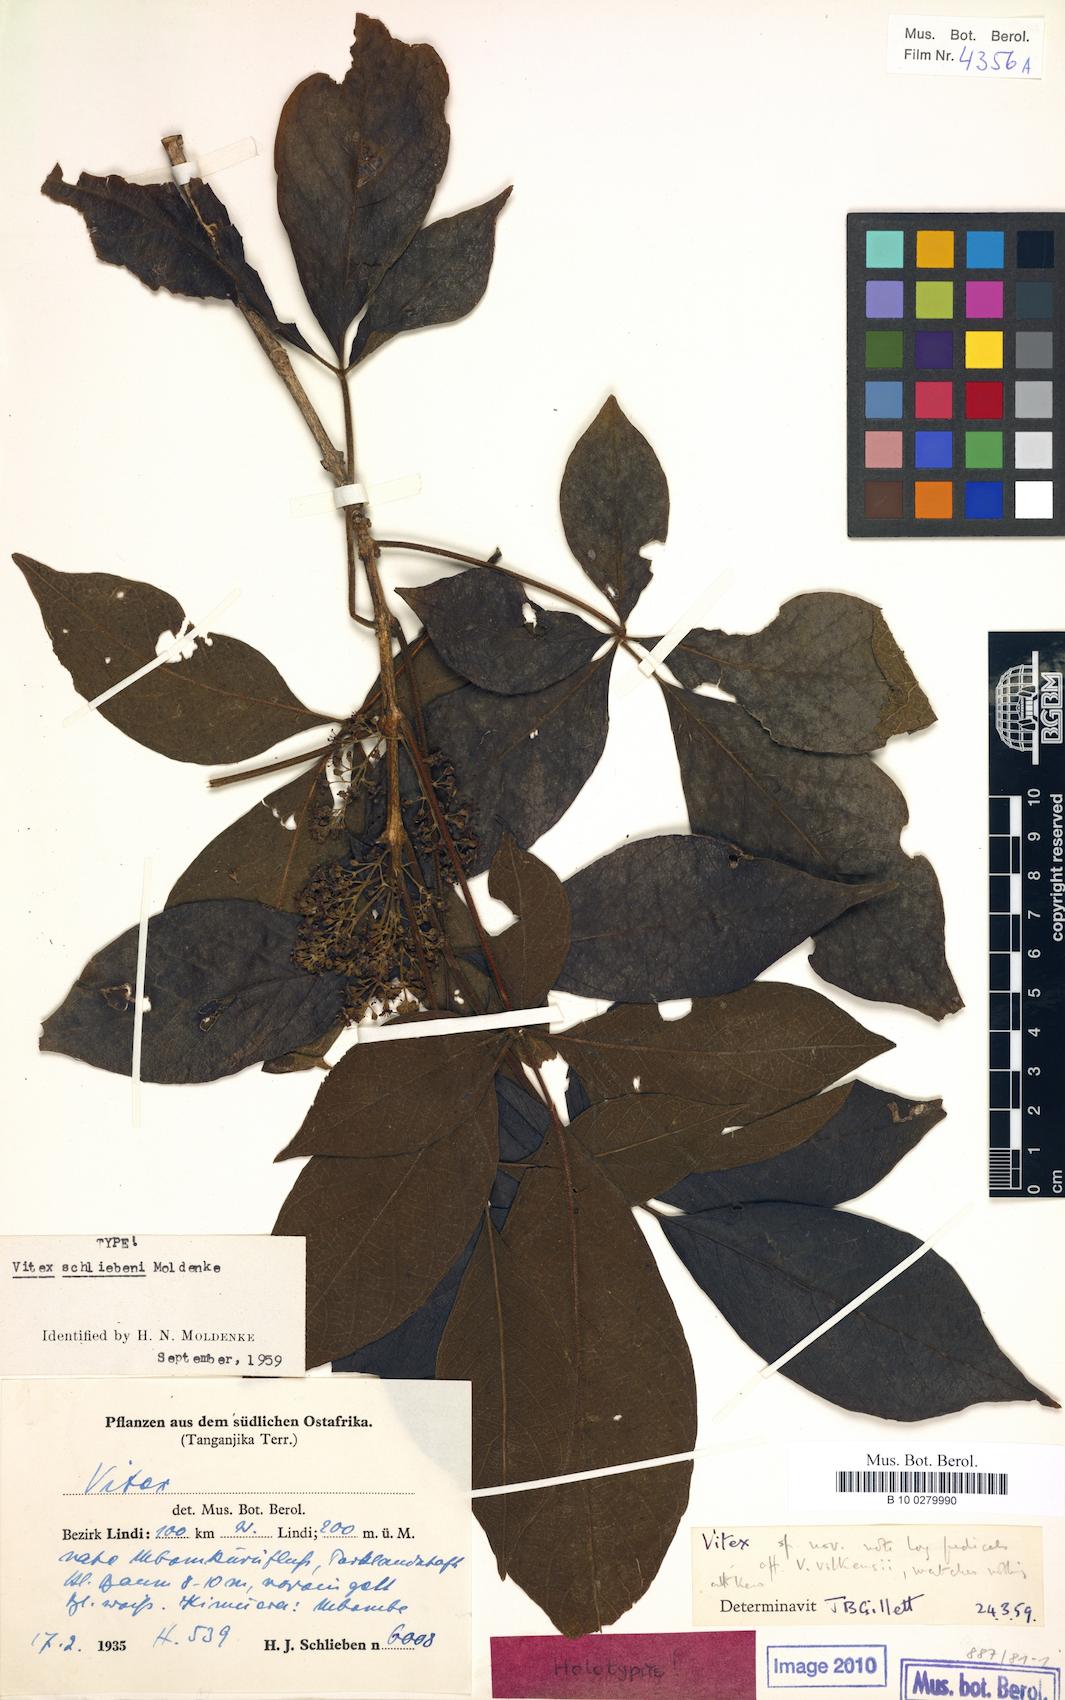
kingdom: Plantae
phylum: Tracheophyta
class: Magnoliopsida
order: Lamiales
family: Lamiaceae
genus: Vitex
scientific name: Vitex schliebenii
